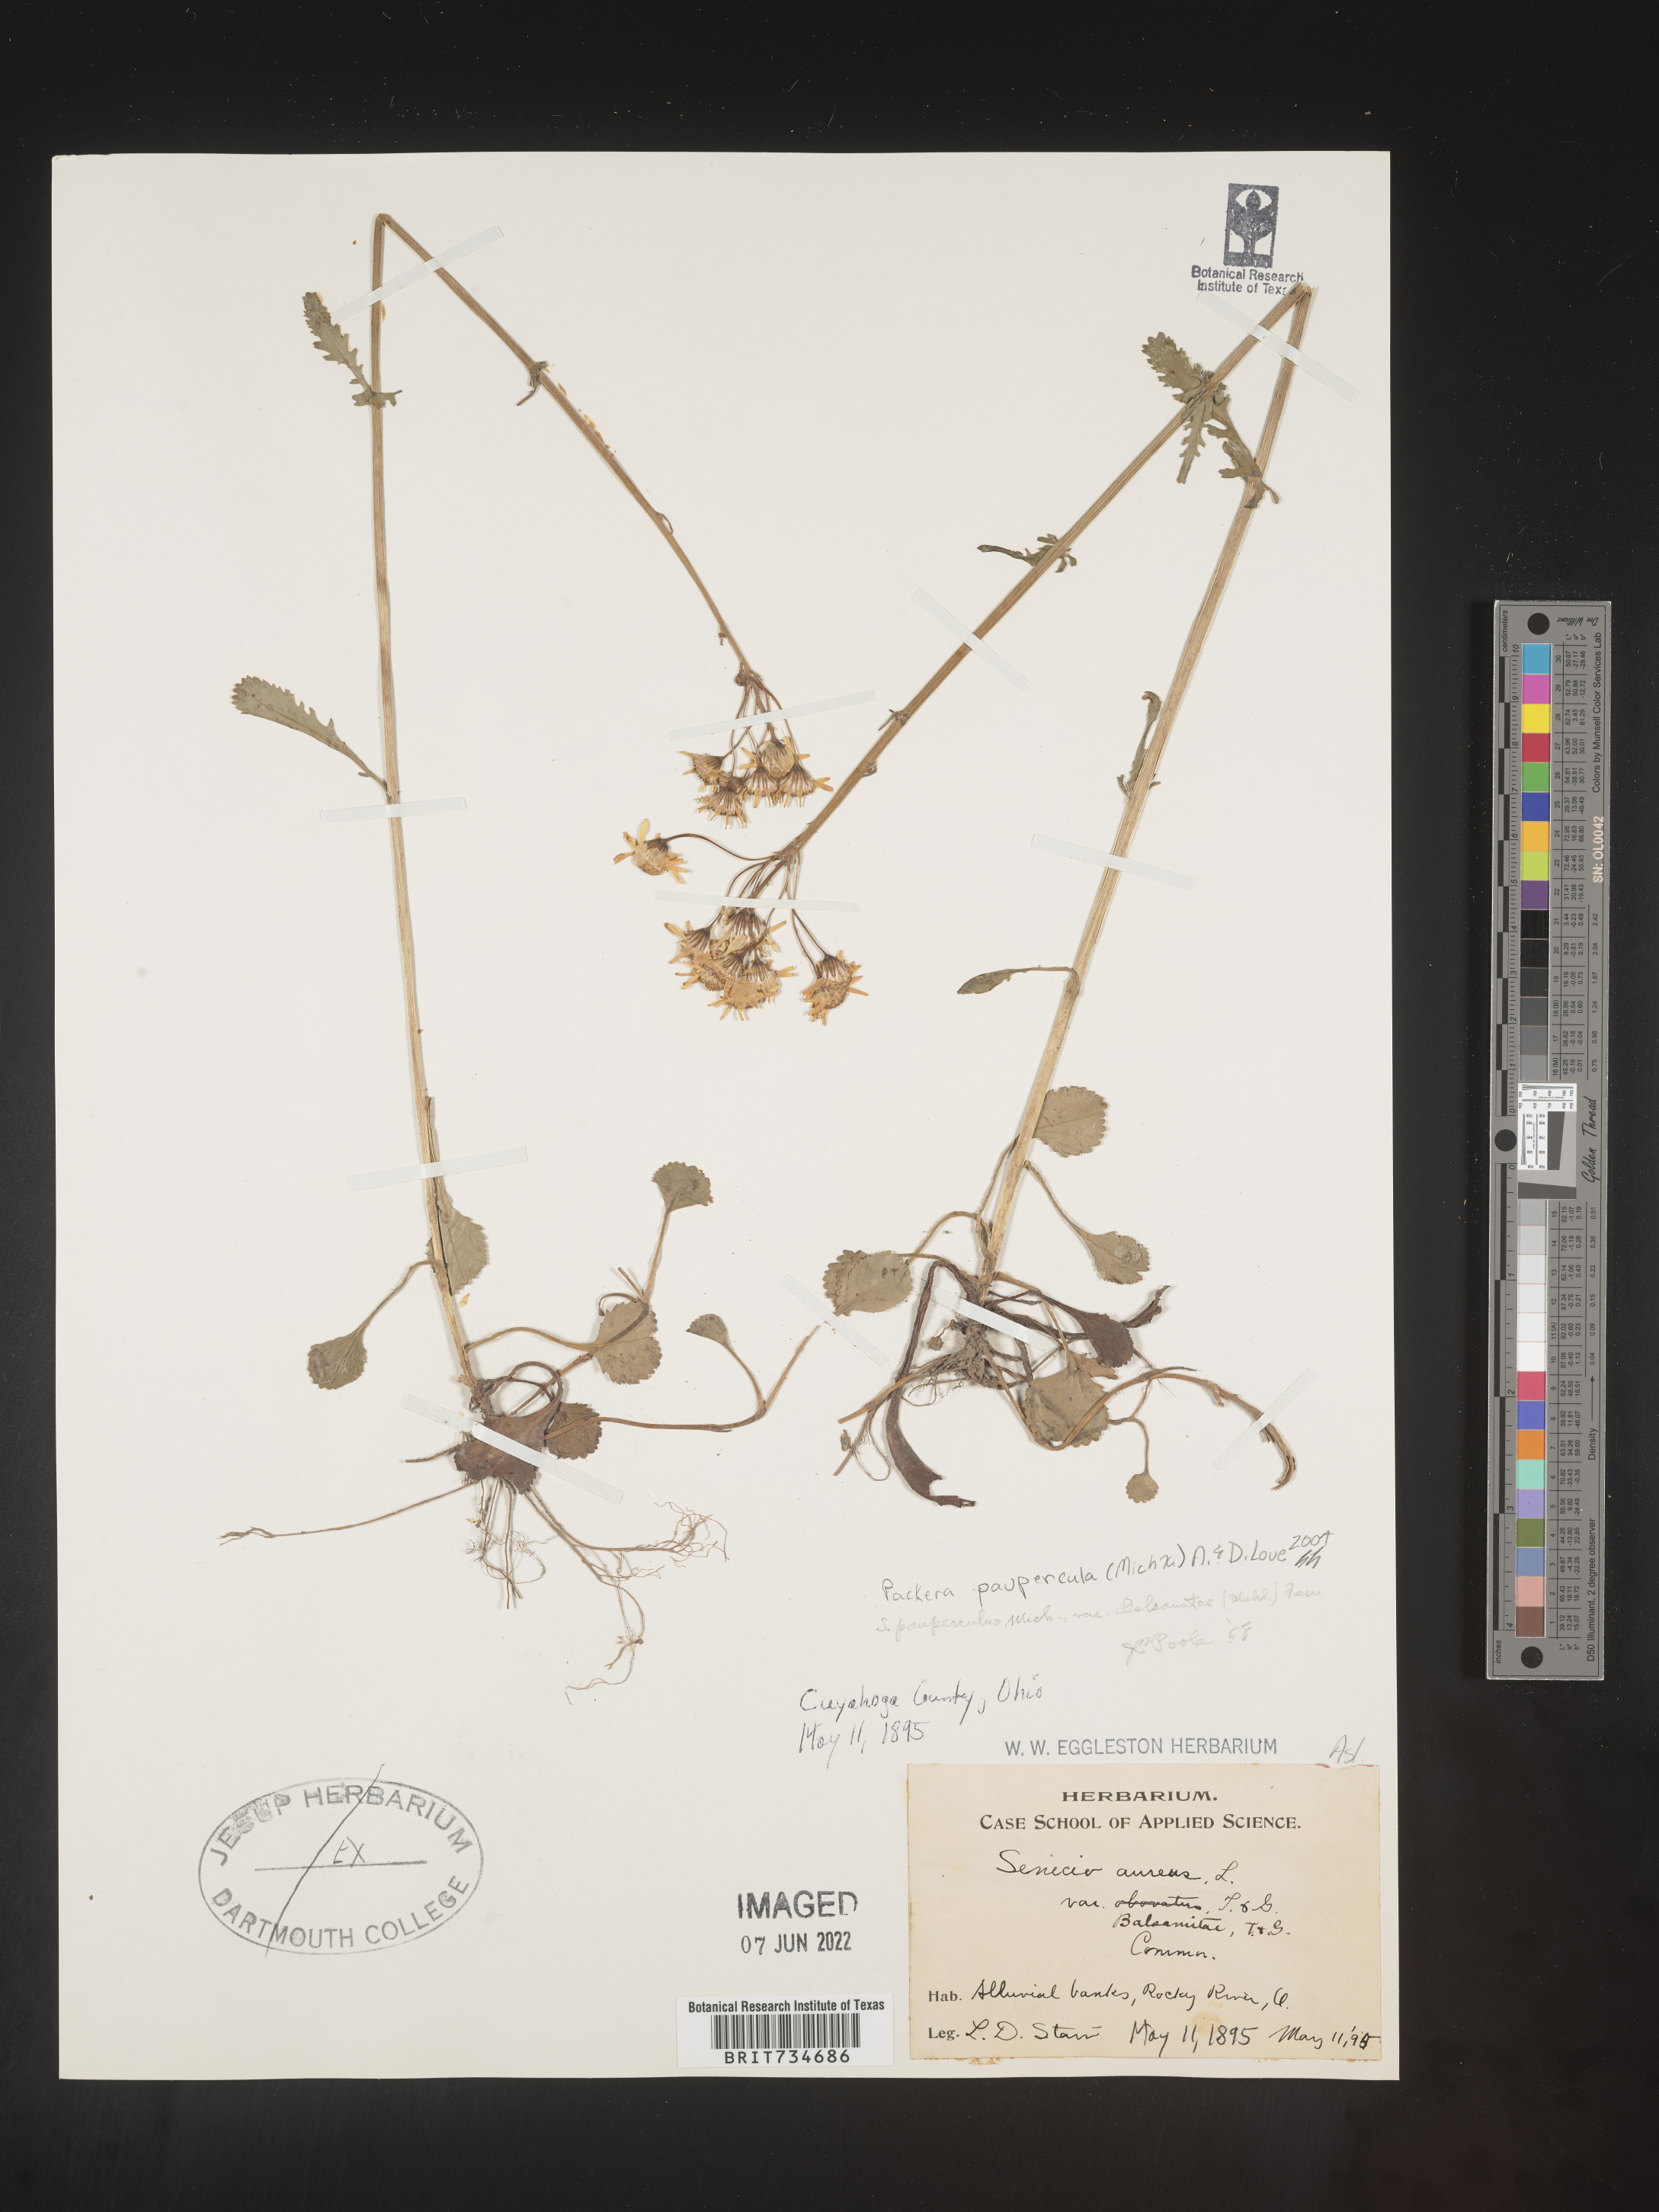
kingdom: Plantae
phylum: Tracheophyta
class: Magnoliopsida
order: Asterales
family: Asteraceae
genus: Packera
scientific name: Packera paupercula
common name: Balsam groundsel
